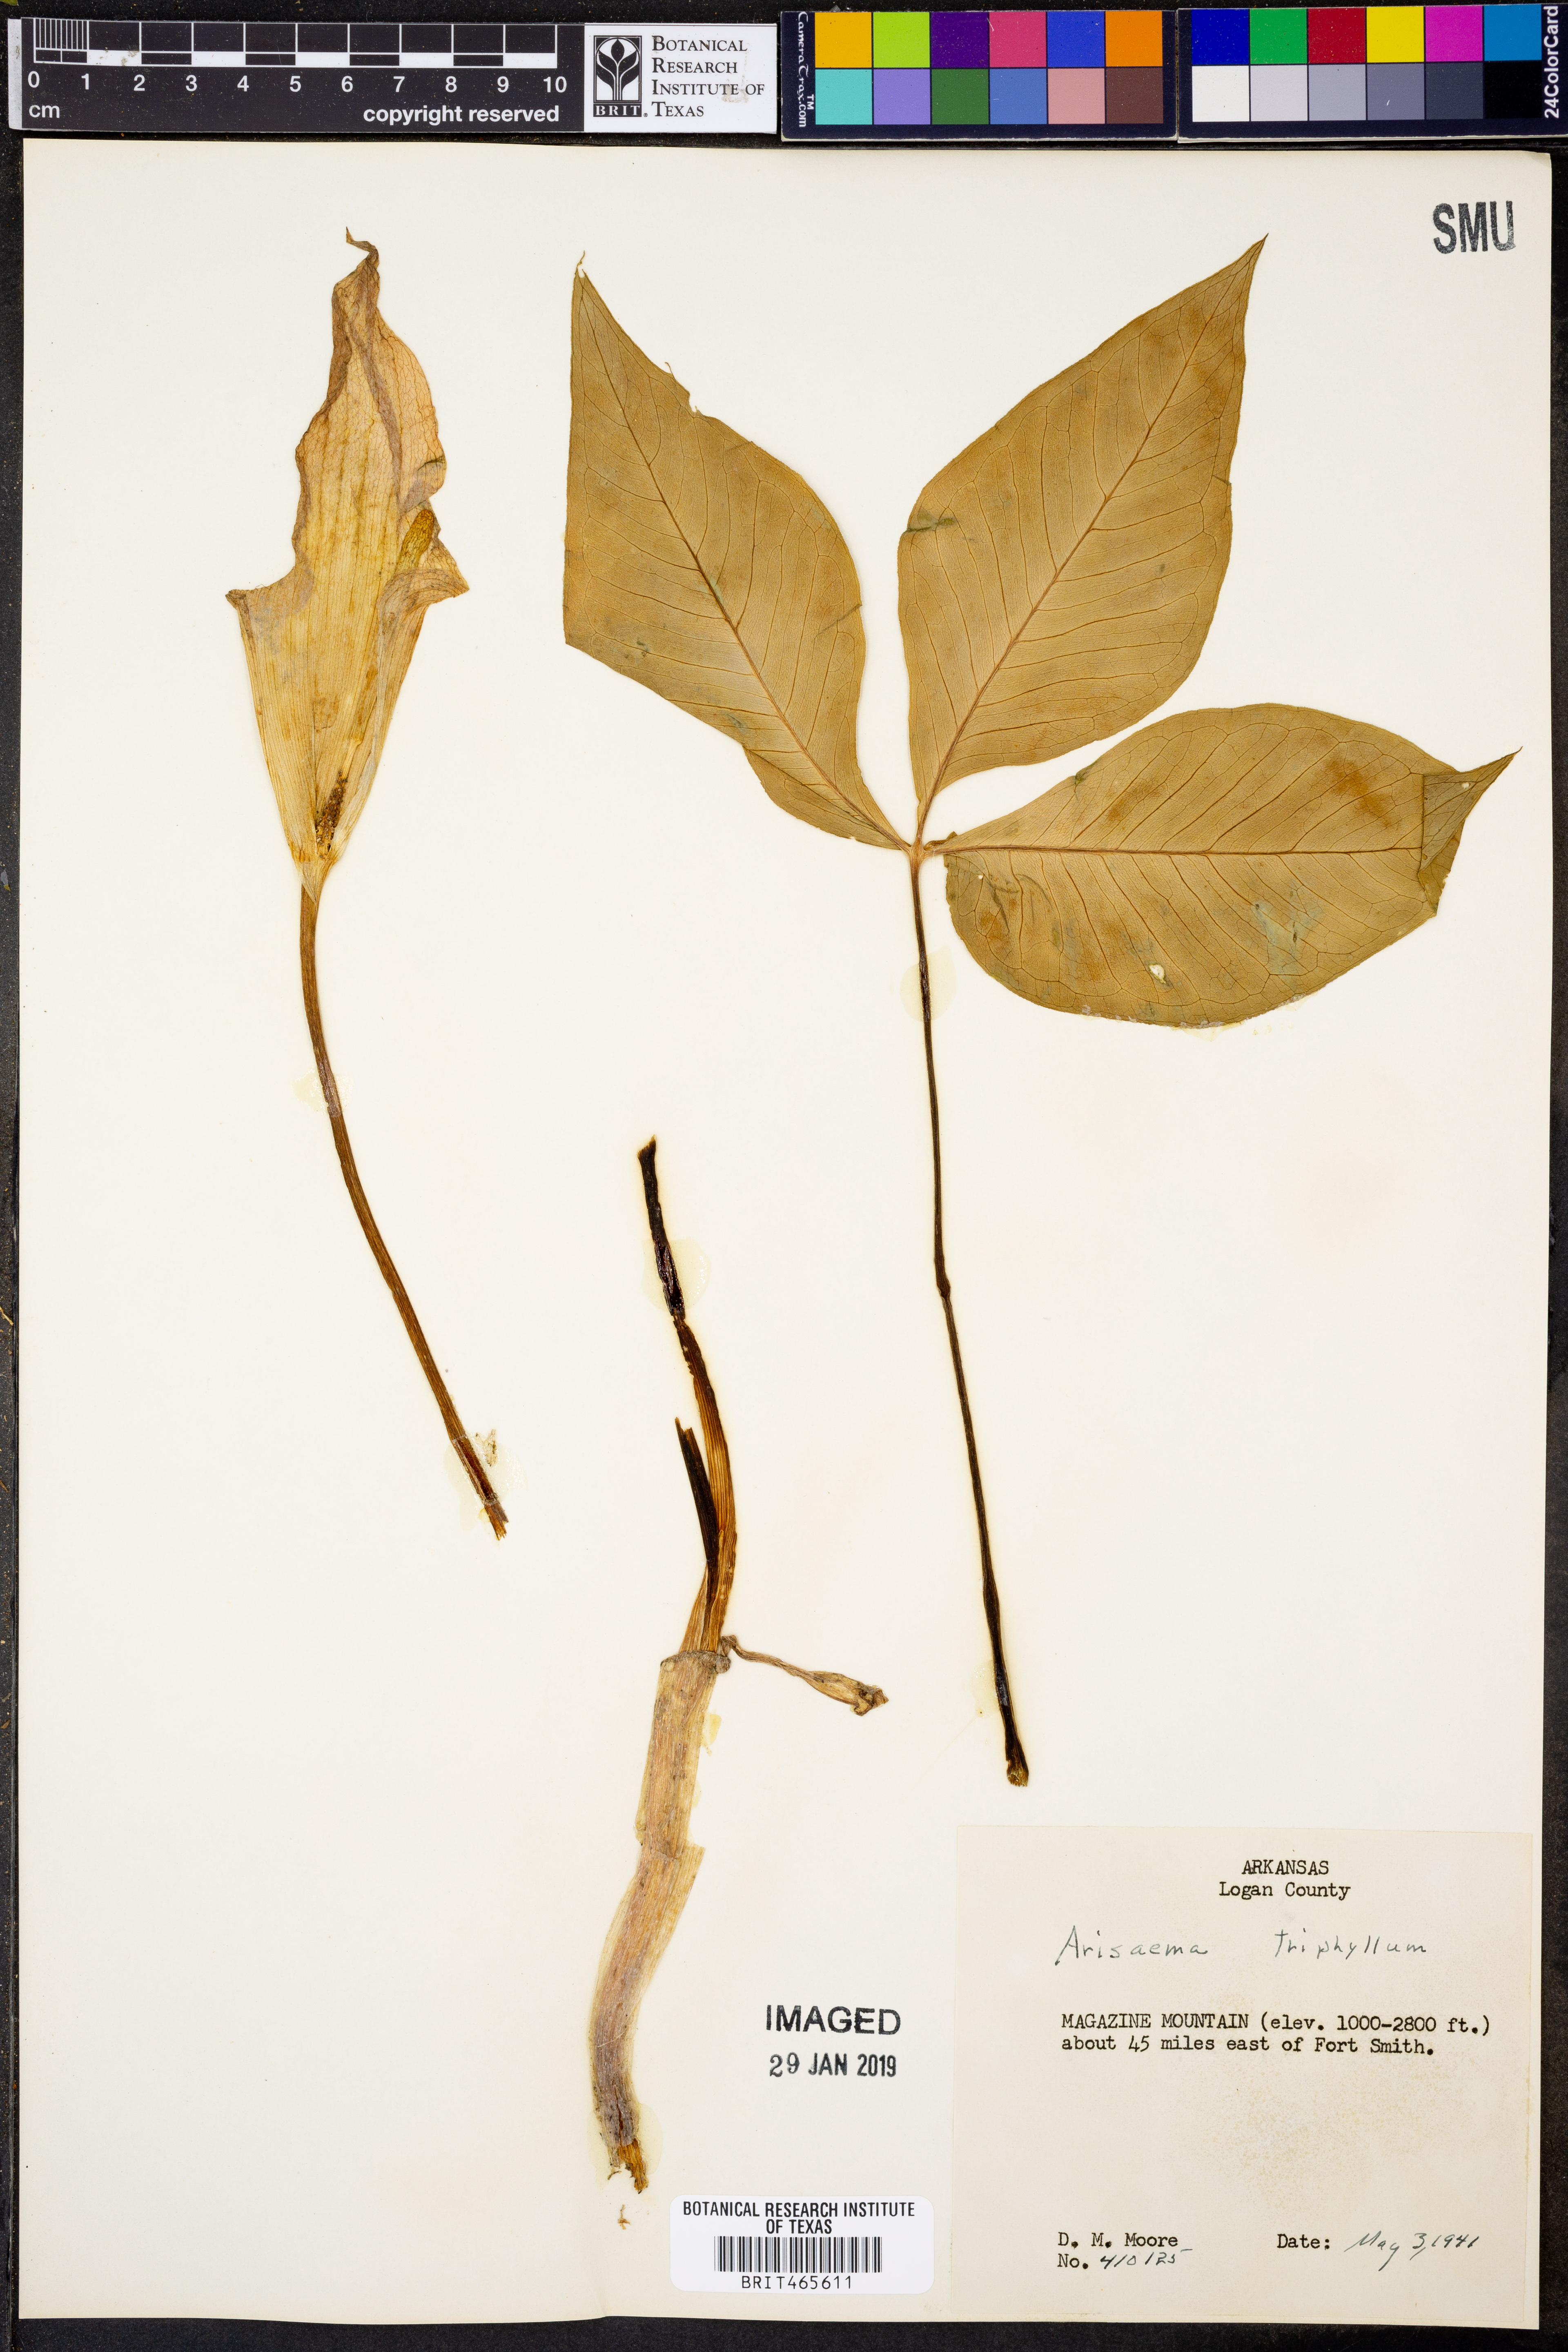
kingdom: Plantae
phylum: Tracheophyta
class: Liliopsida
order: Alismatales
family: Araceae
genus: Arisaema
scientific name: Arisaema triphyllum
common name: Jack-in-the-pulpit
